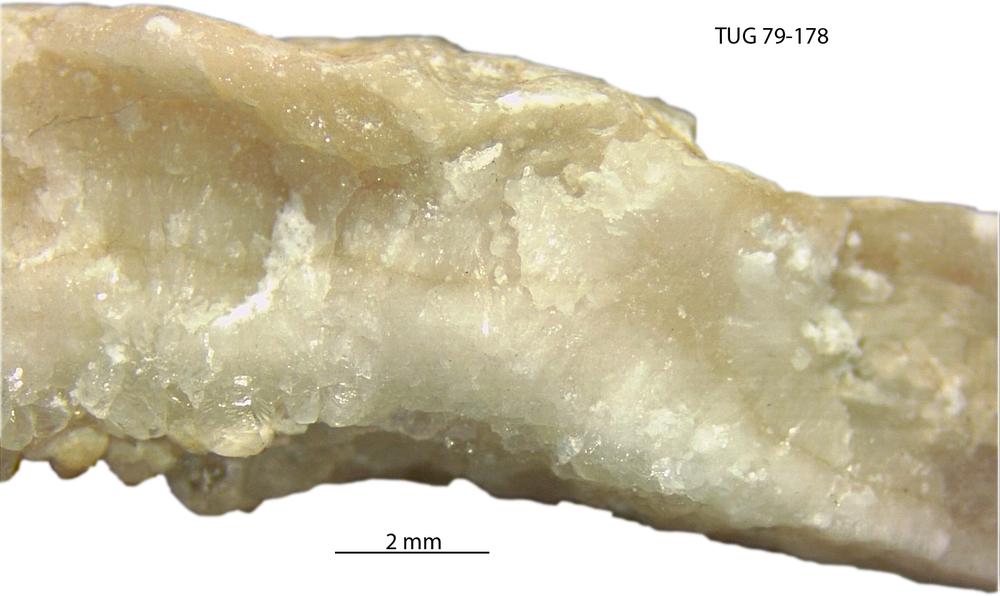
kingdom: Animalia
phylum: Bryozoa
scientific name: Bryozoa
